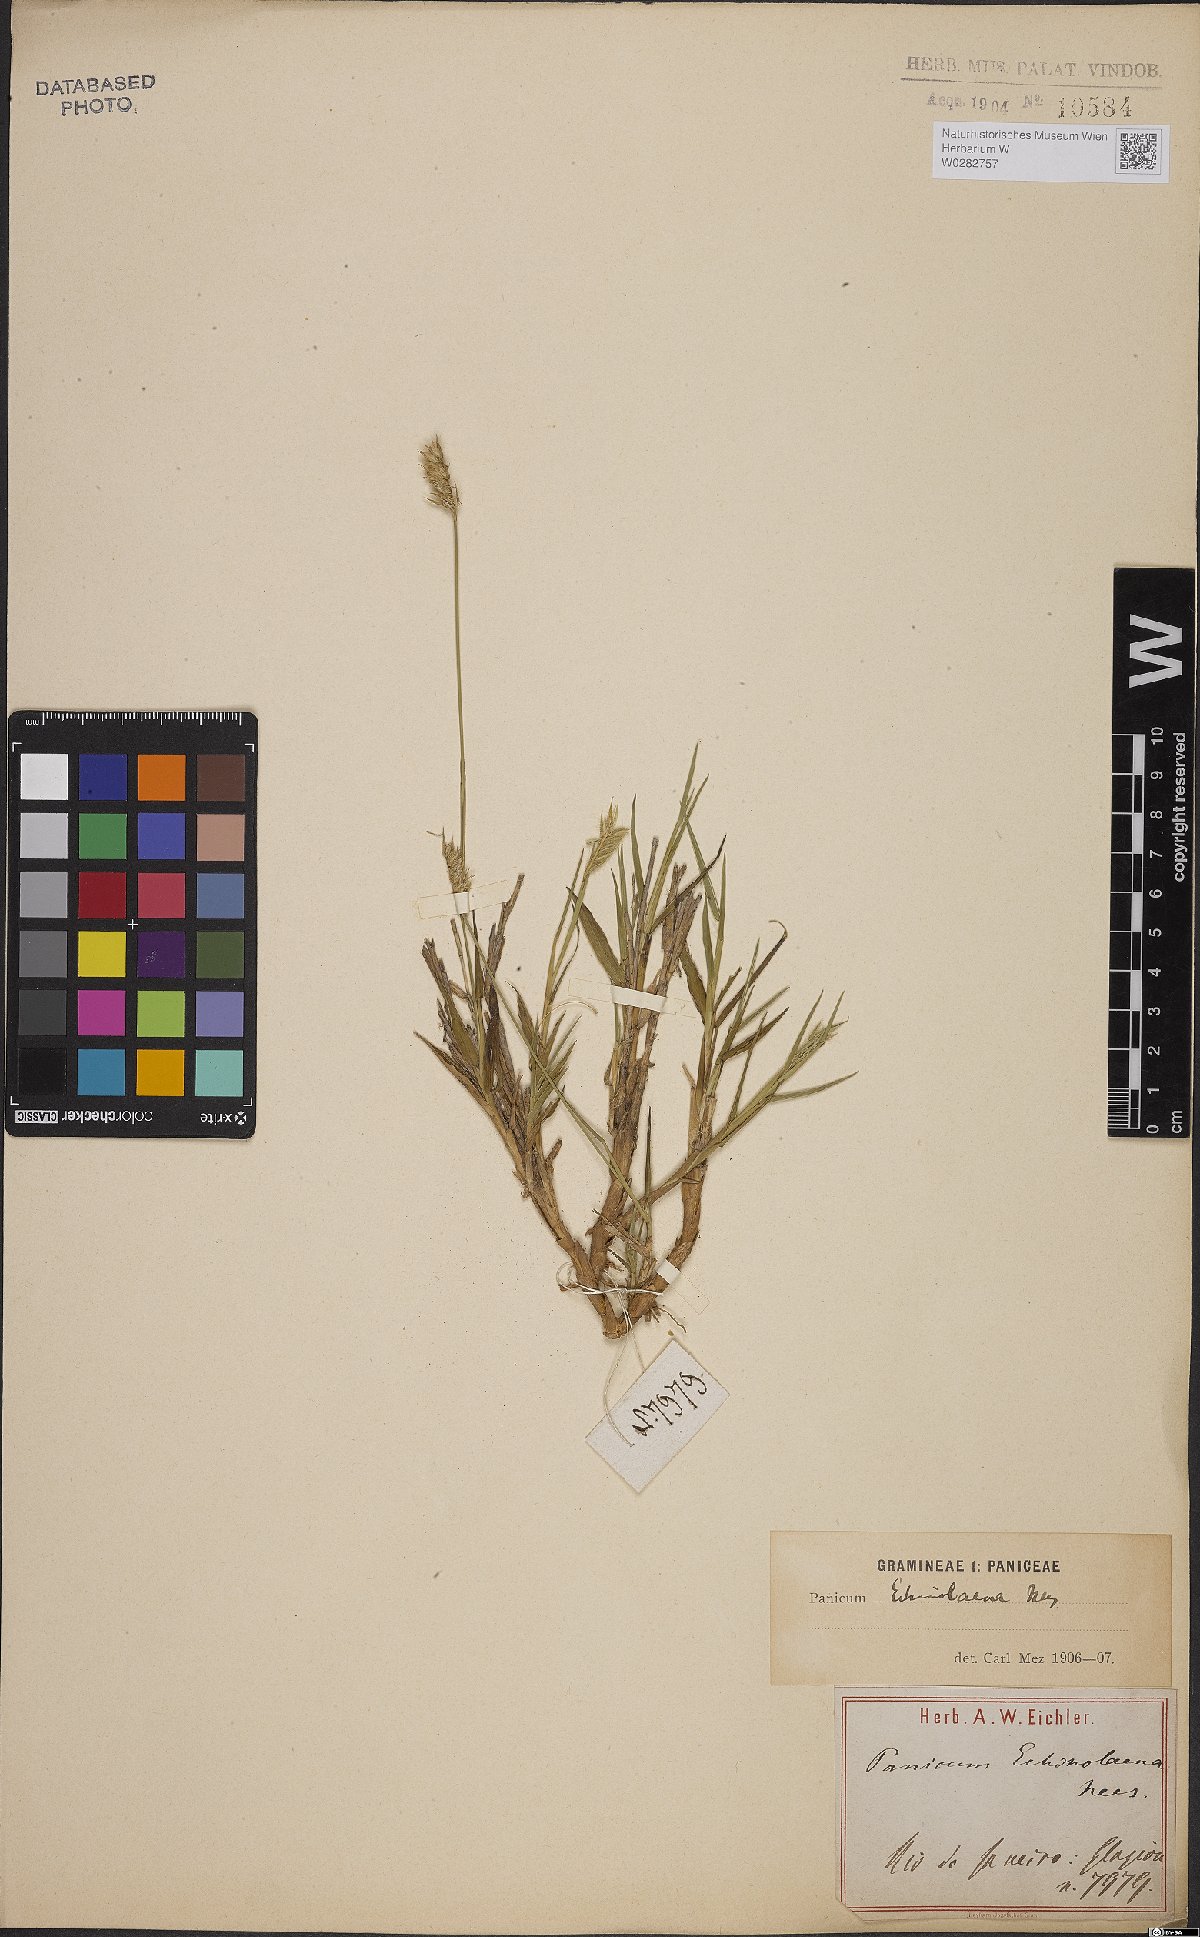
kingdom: Plantae
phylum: Tracheophyta
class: Liliopsida
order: Poales
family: Poaceae
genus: Echinolaena
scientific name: Echinolaena inflexa
